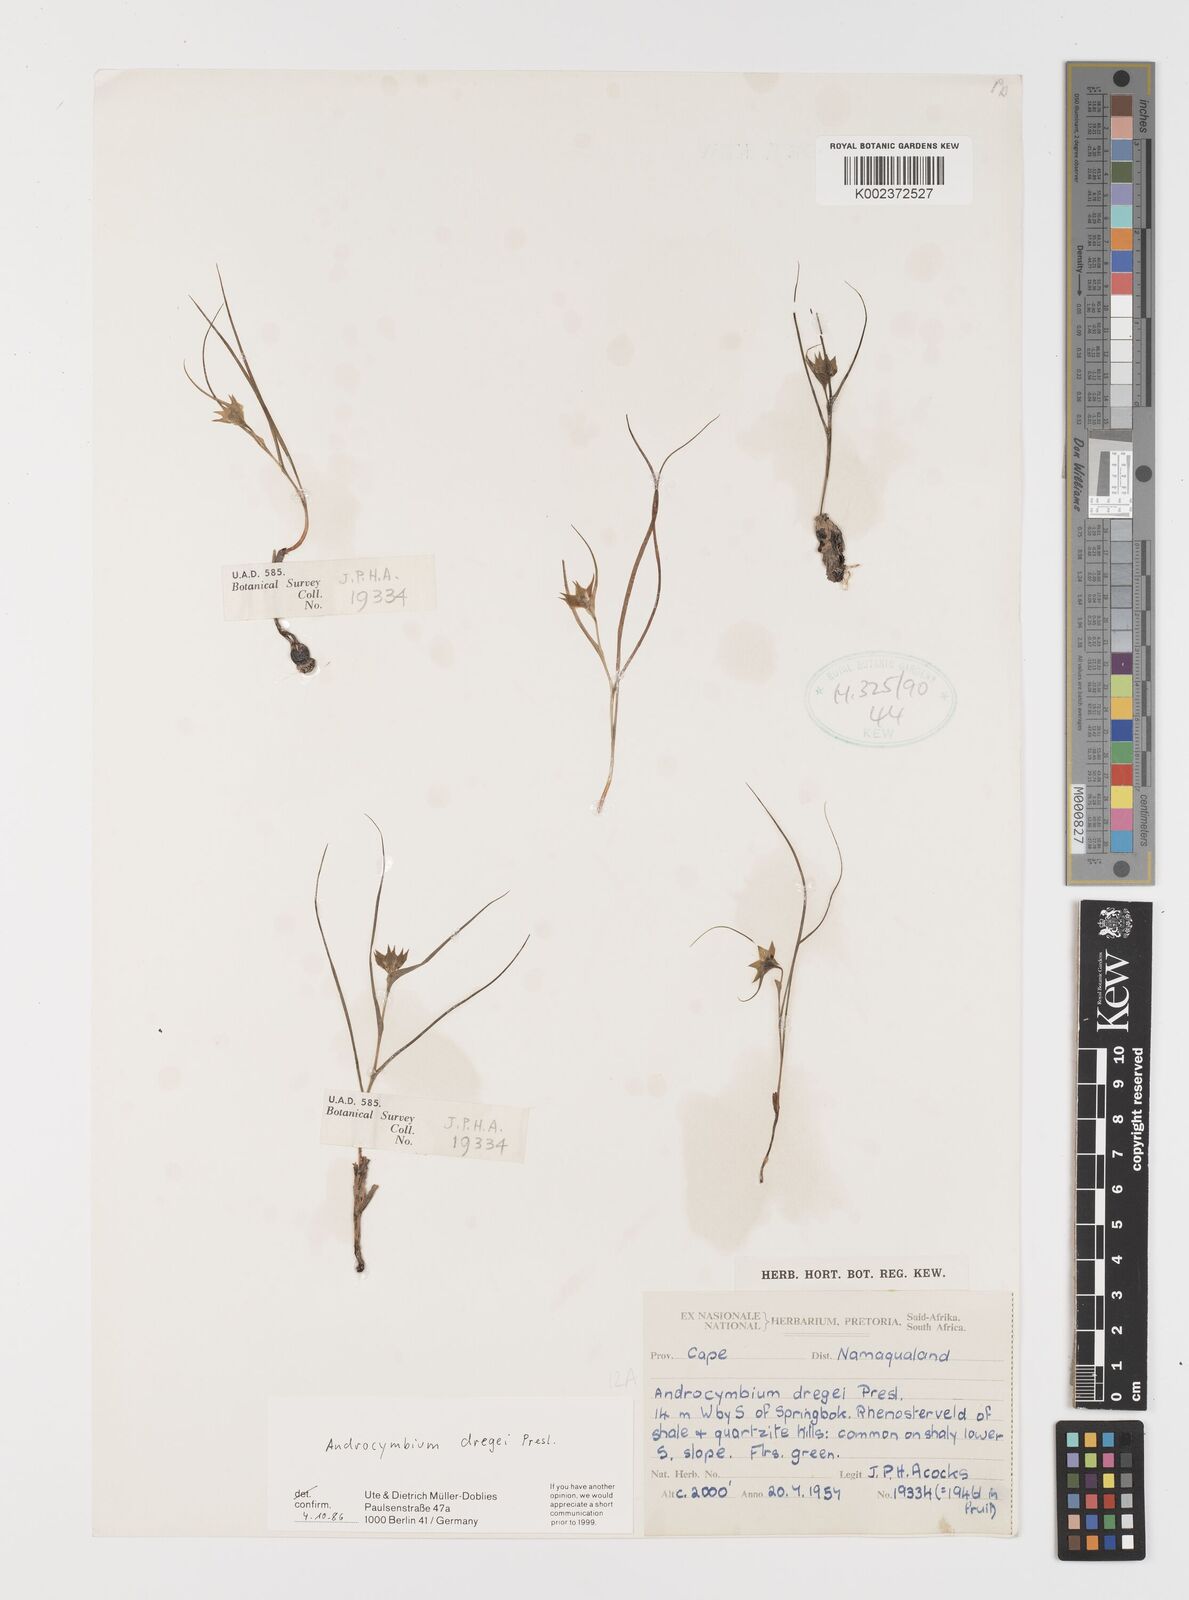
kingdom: Plantae
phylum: Tracheophyta
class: Liliopsida
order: Liliales
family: Colchicaceae
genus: Colchicum
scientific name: Colchicum dregei
